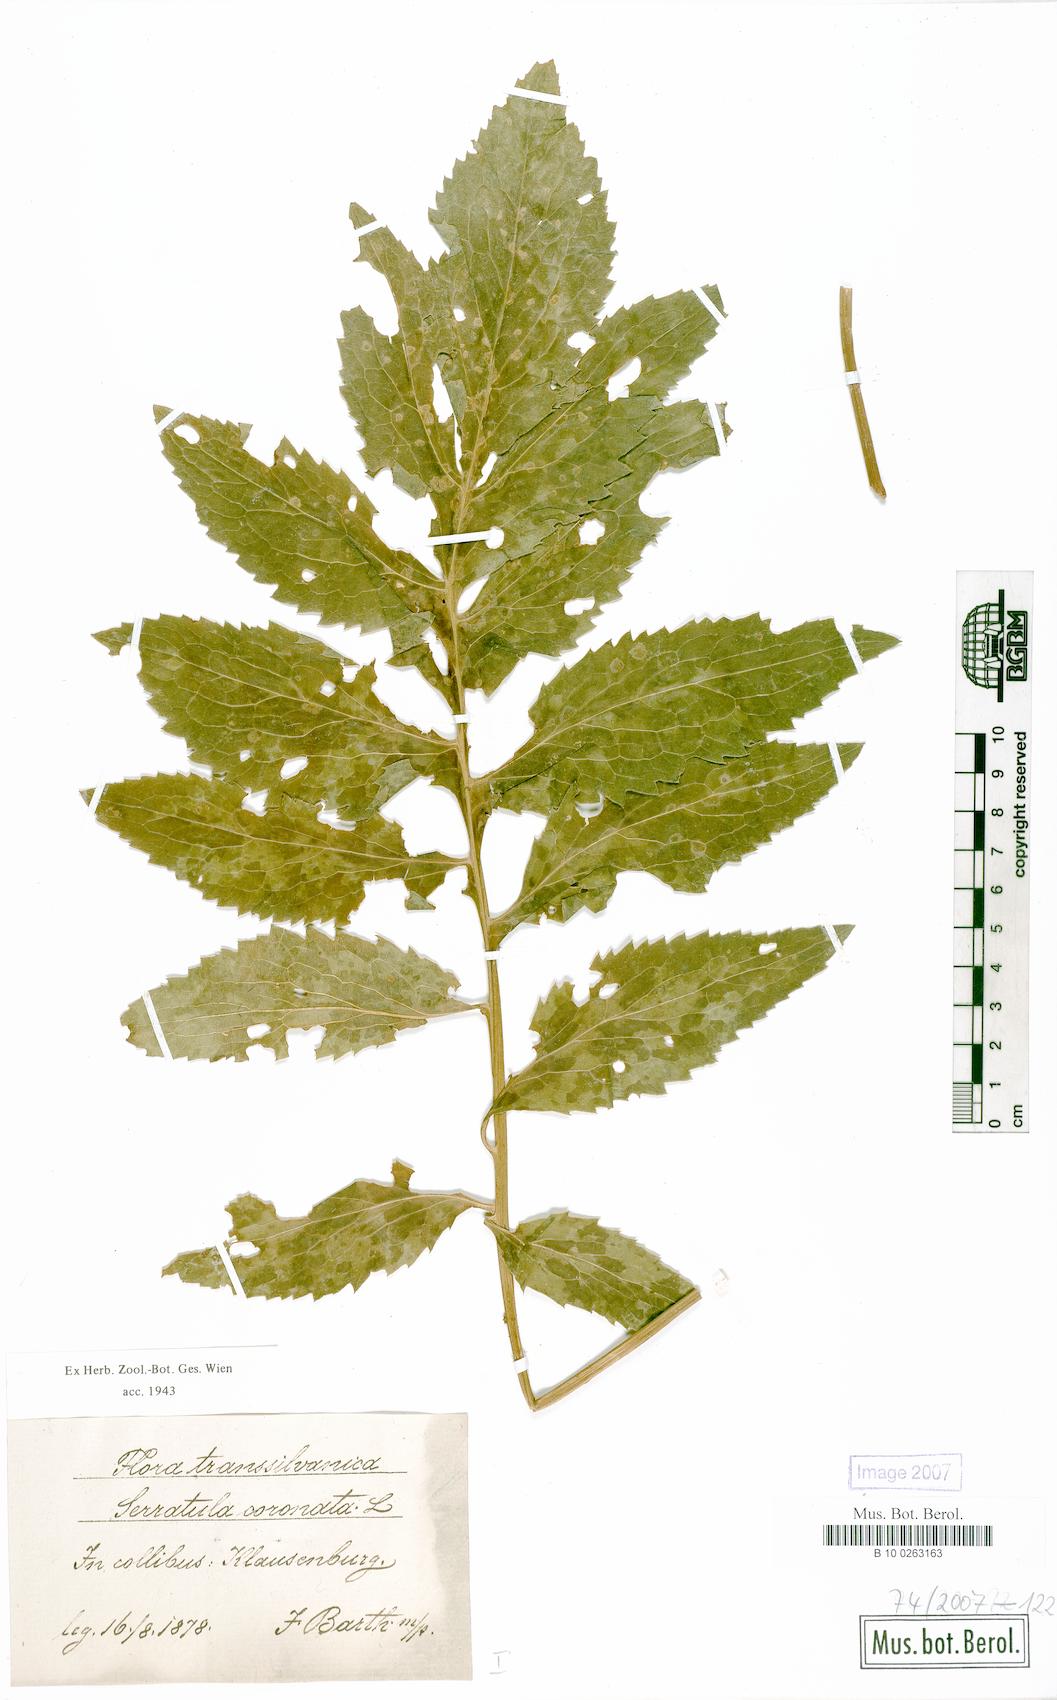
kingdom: Plantae
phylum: Tracheophyta
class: Magnoliopsida
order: Asterales
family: Asteraceae
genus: Serratula
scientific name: Serratula coronata
